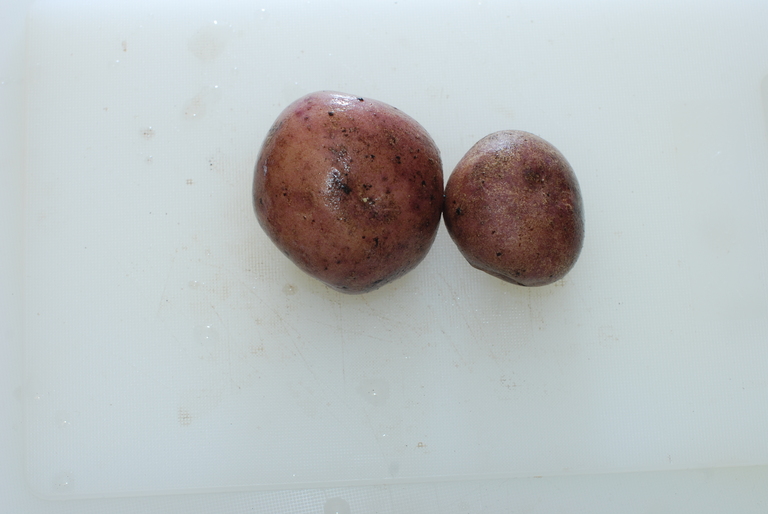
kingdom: Plantae
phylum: Tracheophyta
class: Magnoliopsida
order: Solanales
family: Solanaceae
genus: Solanum
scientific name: Solanum tuberosum
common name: Potato
